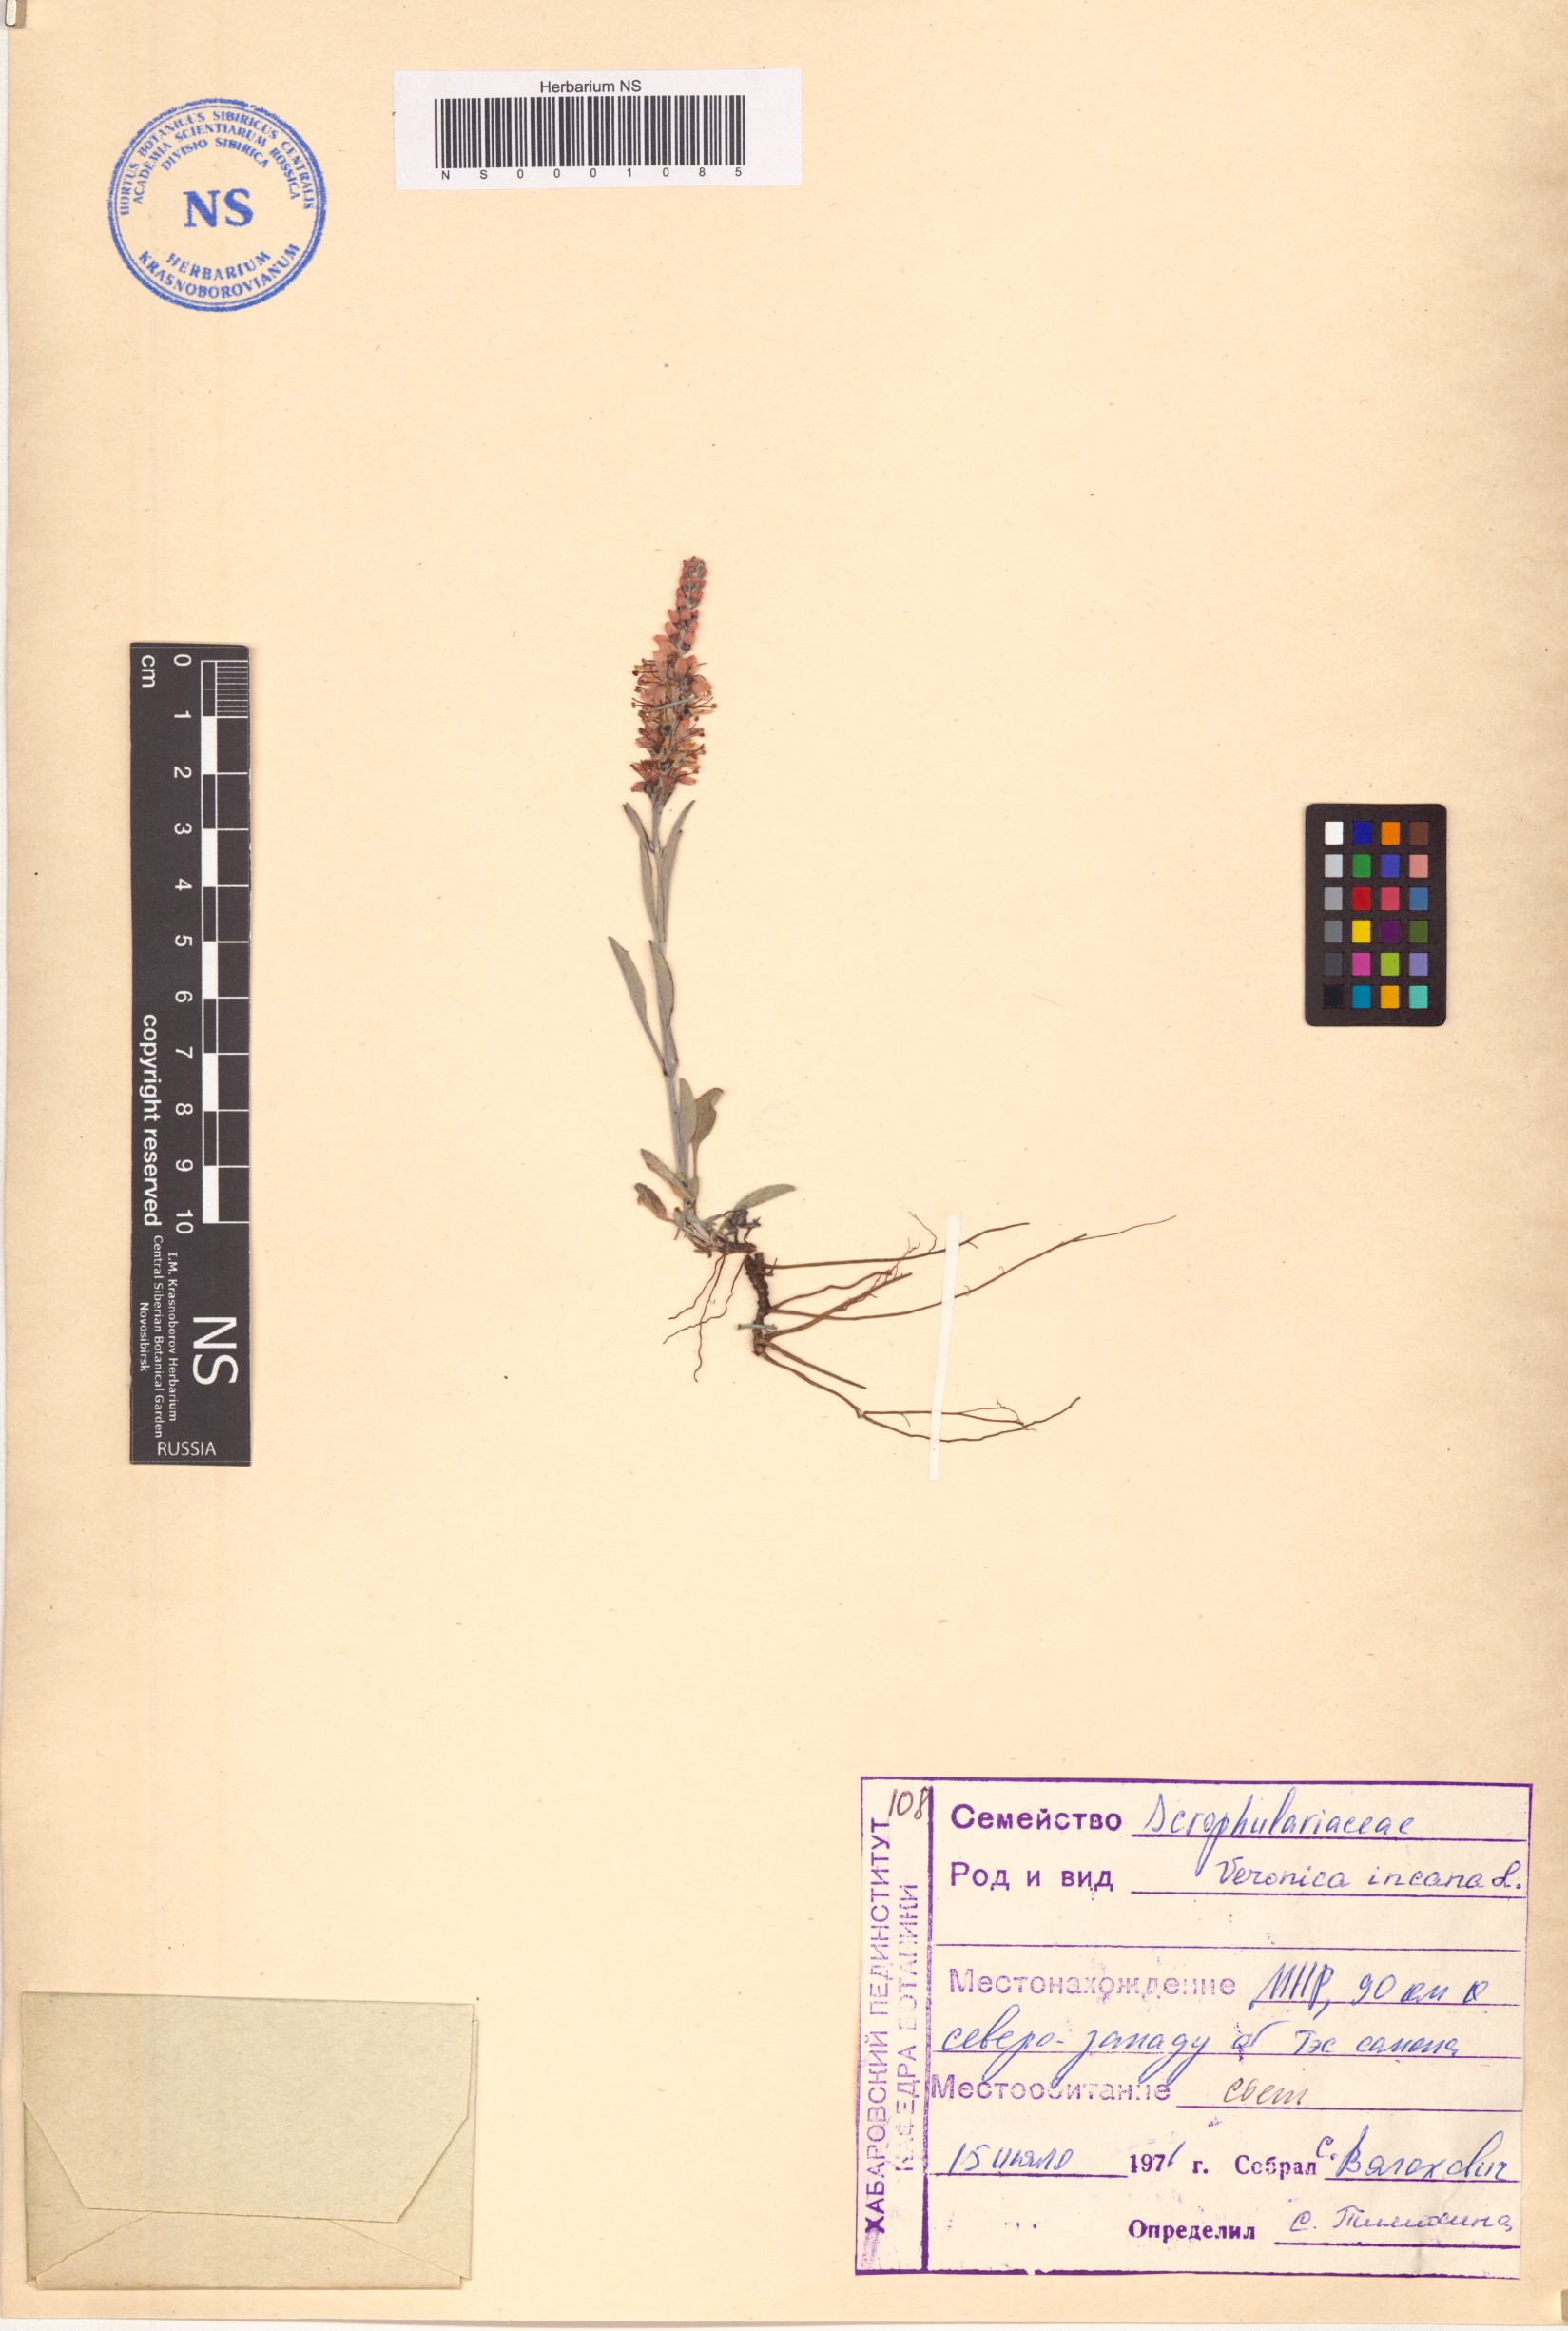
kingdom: Plantae
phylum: Tracheophyta
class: Magnoliopsida
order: Lamiales
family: Plantaginaceae
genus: Veronica
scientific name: Veronica incana
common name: Silver speedwell
